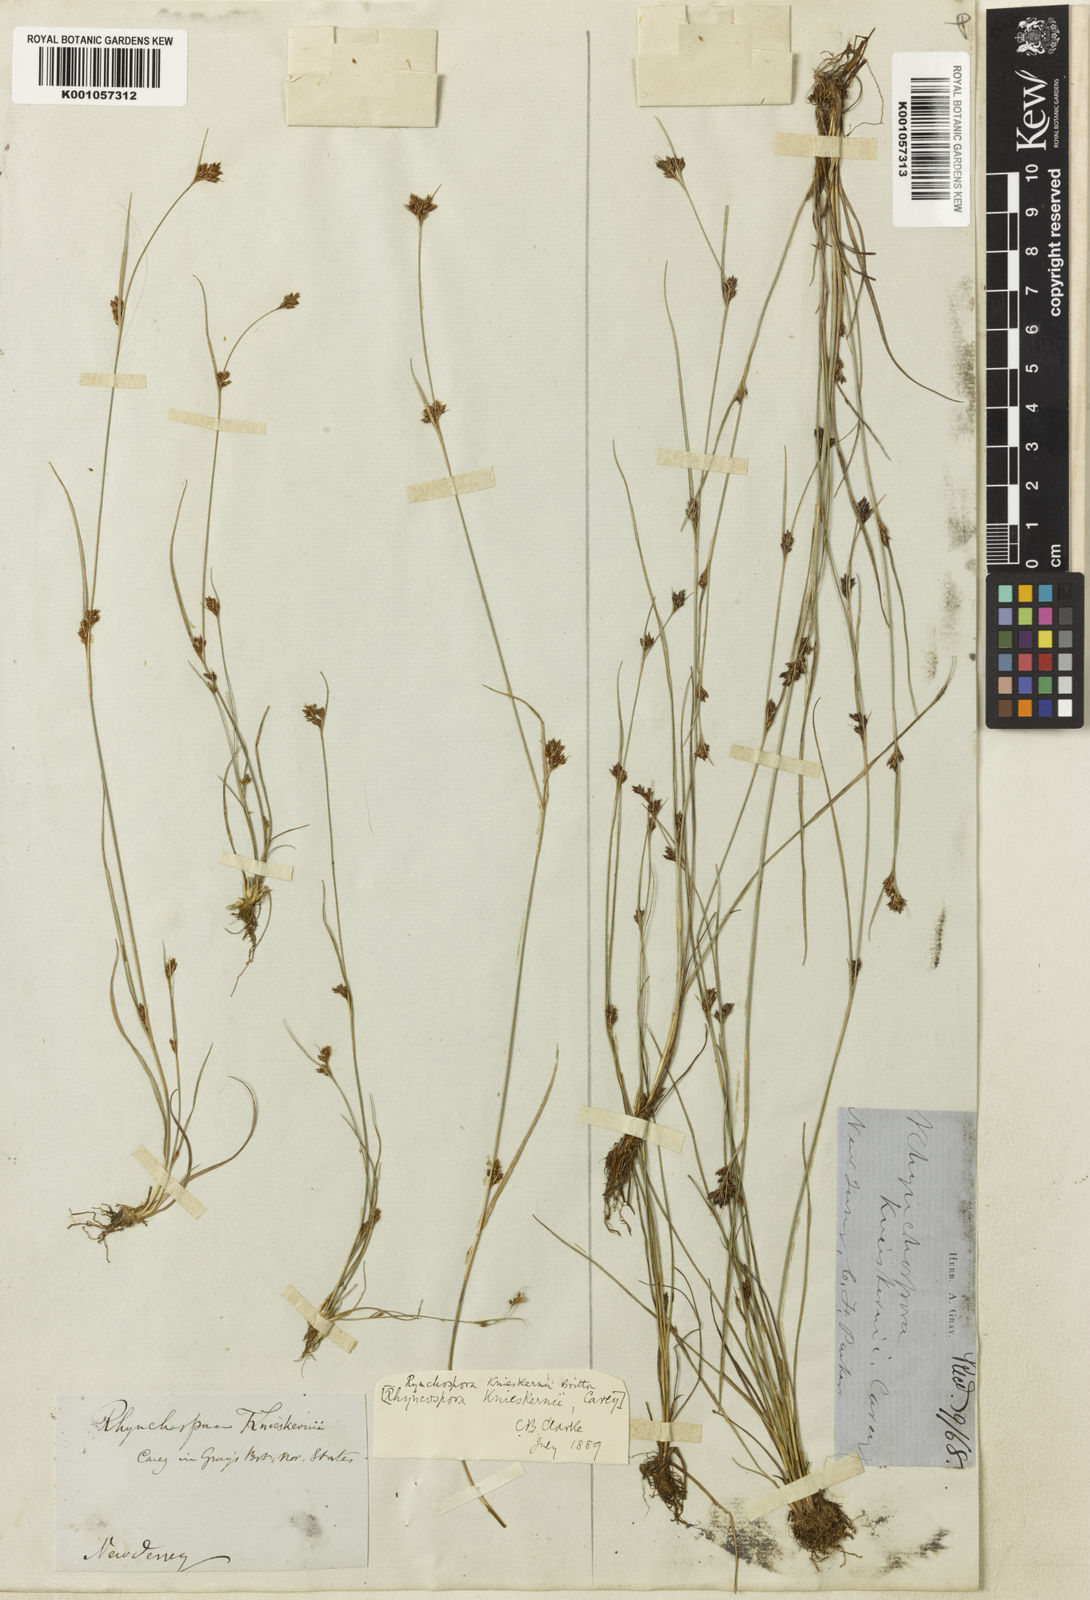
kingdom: Plantae
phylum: Tracheophyta
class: Liliopsida
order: Poales
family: Cyperaceae
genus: Rhynchospora
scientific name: Rhynchospora knieskernii
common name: Knieskern's beak-rush
